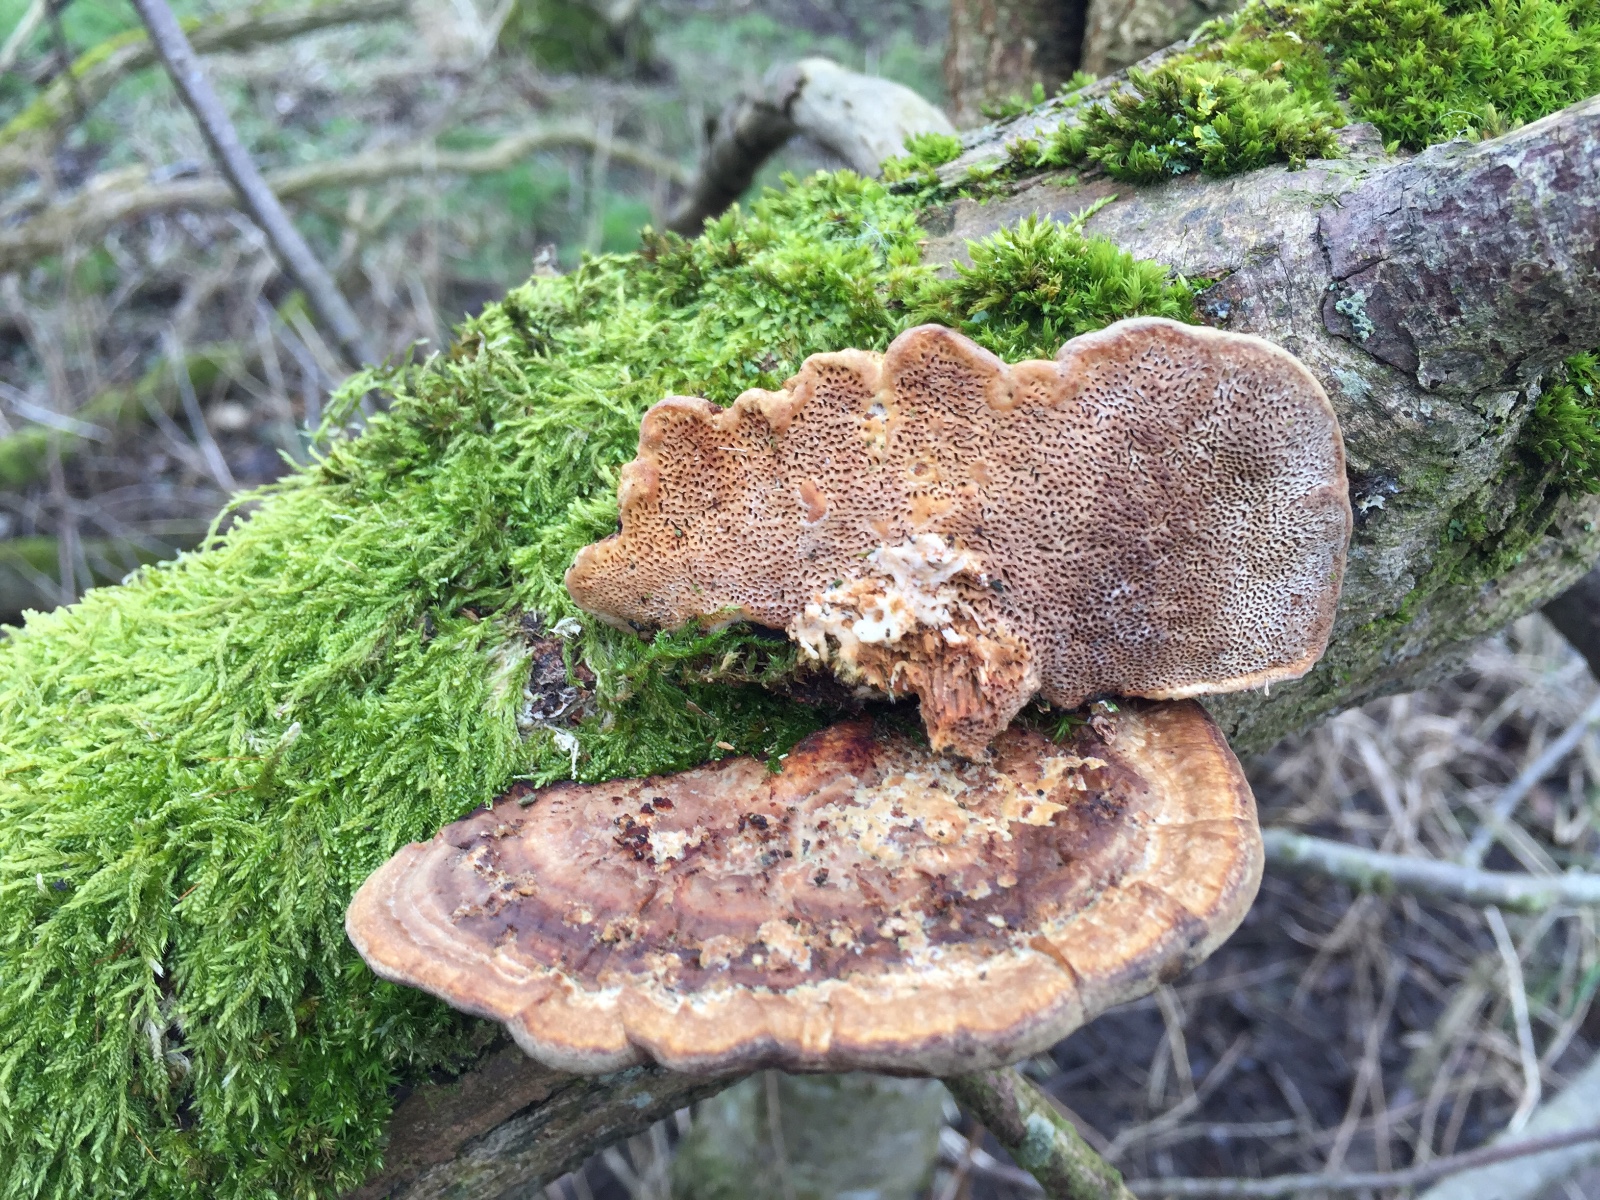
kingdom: Fungi
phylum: Basidiomycota
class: Agaricomycetes
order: Polyporales
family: Polyporaceae
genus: Daedaleopsis
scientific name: Daedaleopsis confragosa
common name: rødmende læderporesvamp
